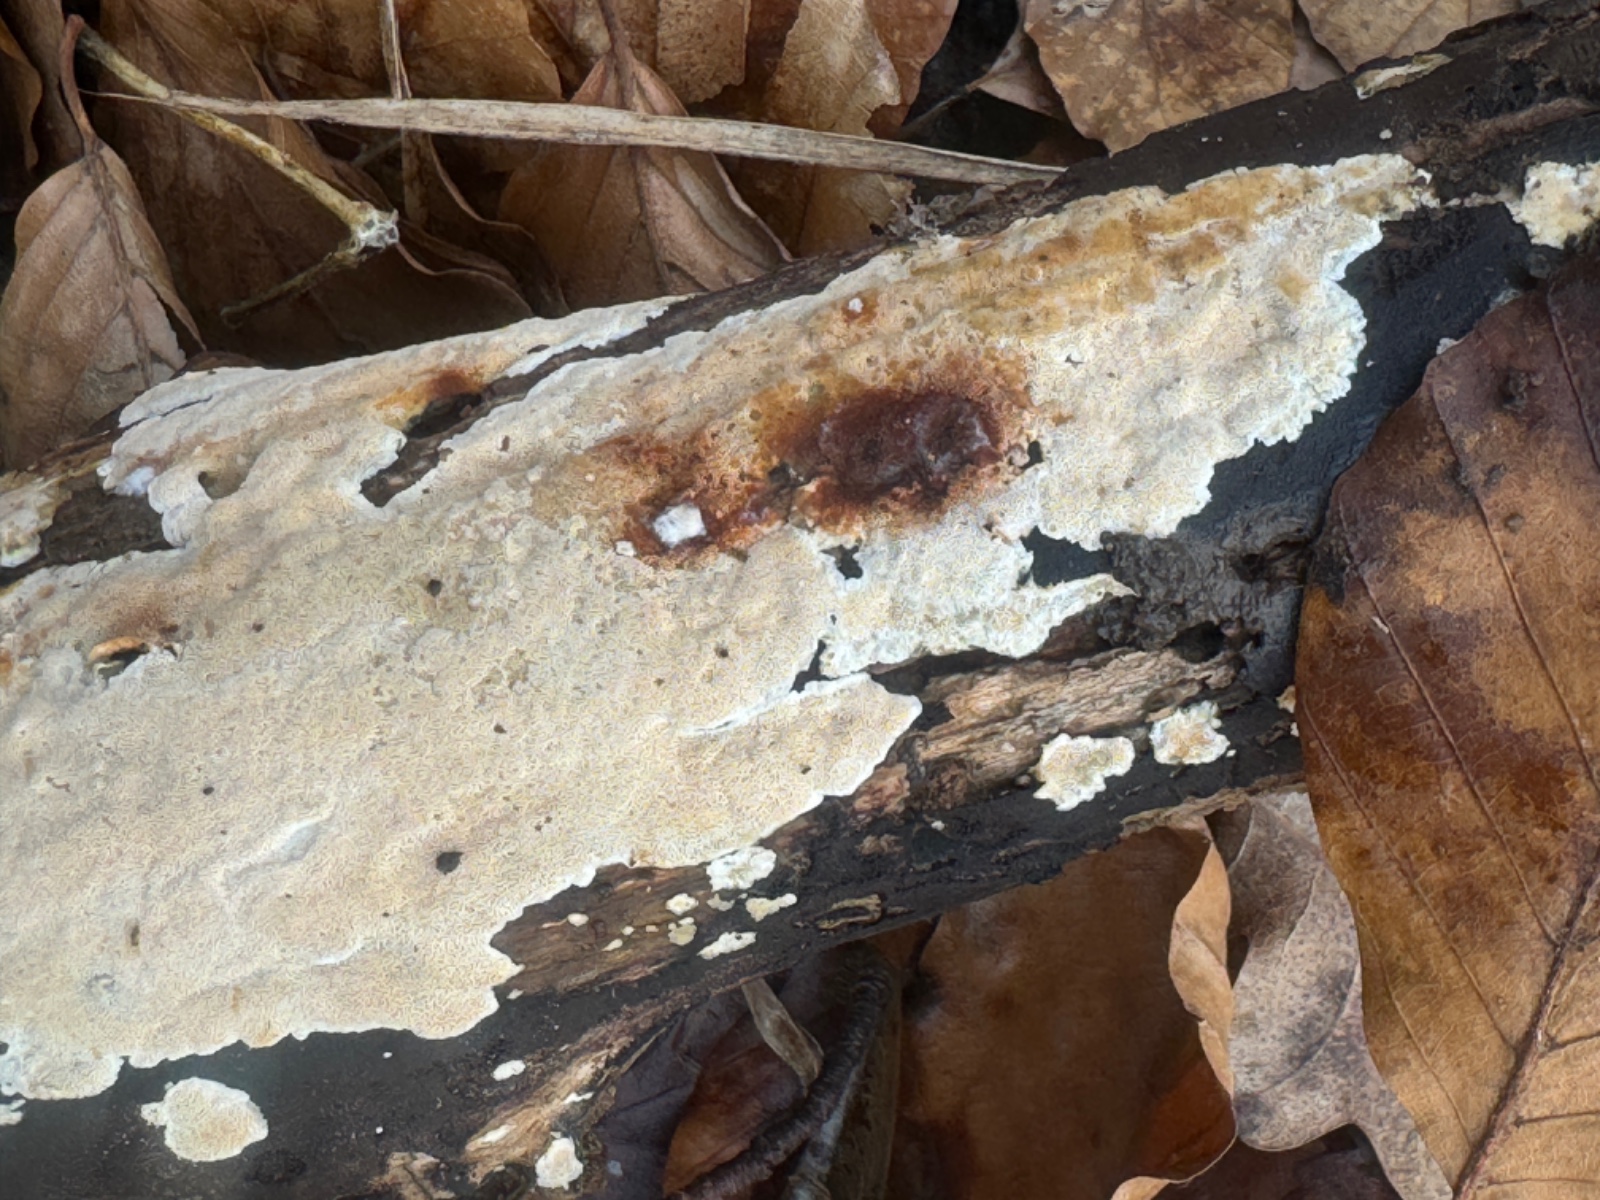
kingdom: Fungi
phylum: Basidiomycota
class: Agaricomycetes
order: Hymenochaetales
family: Schizoporaceae
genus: Xylodon
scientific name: Xylodon subtropicus
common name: labyrint-tandsvamp
